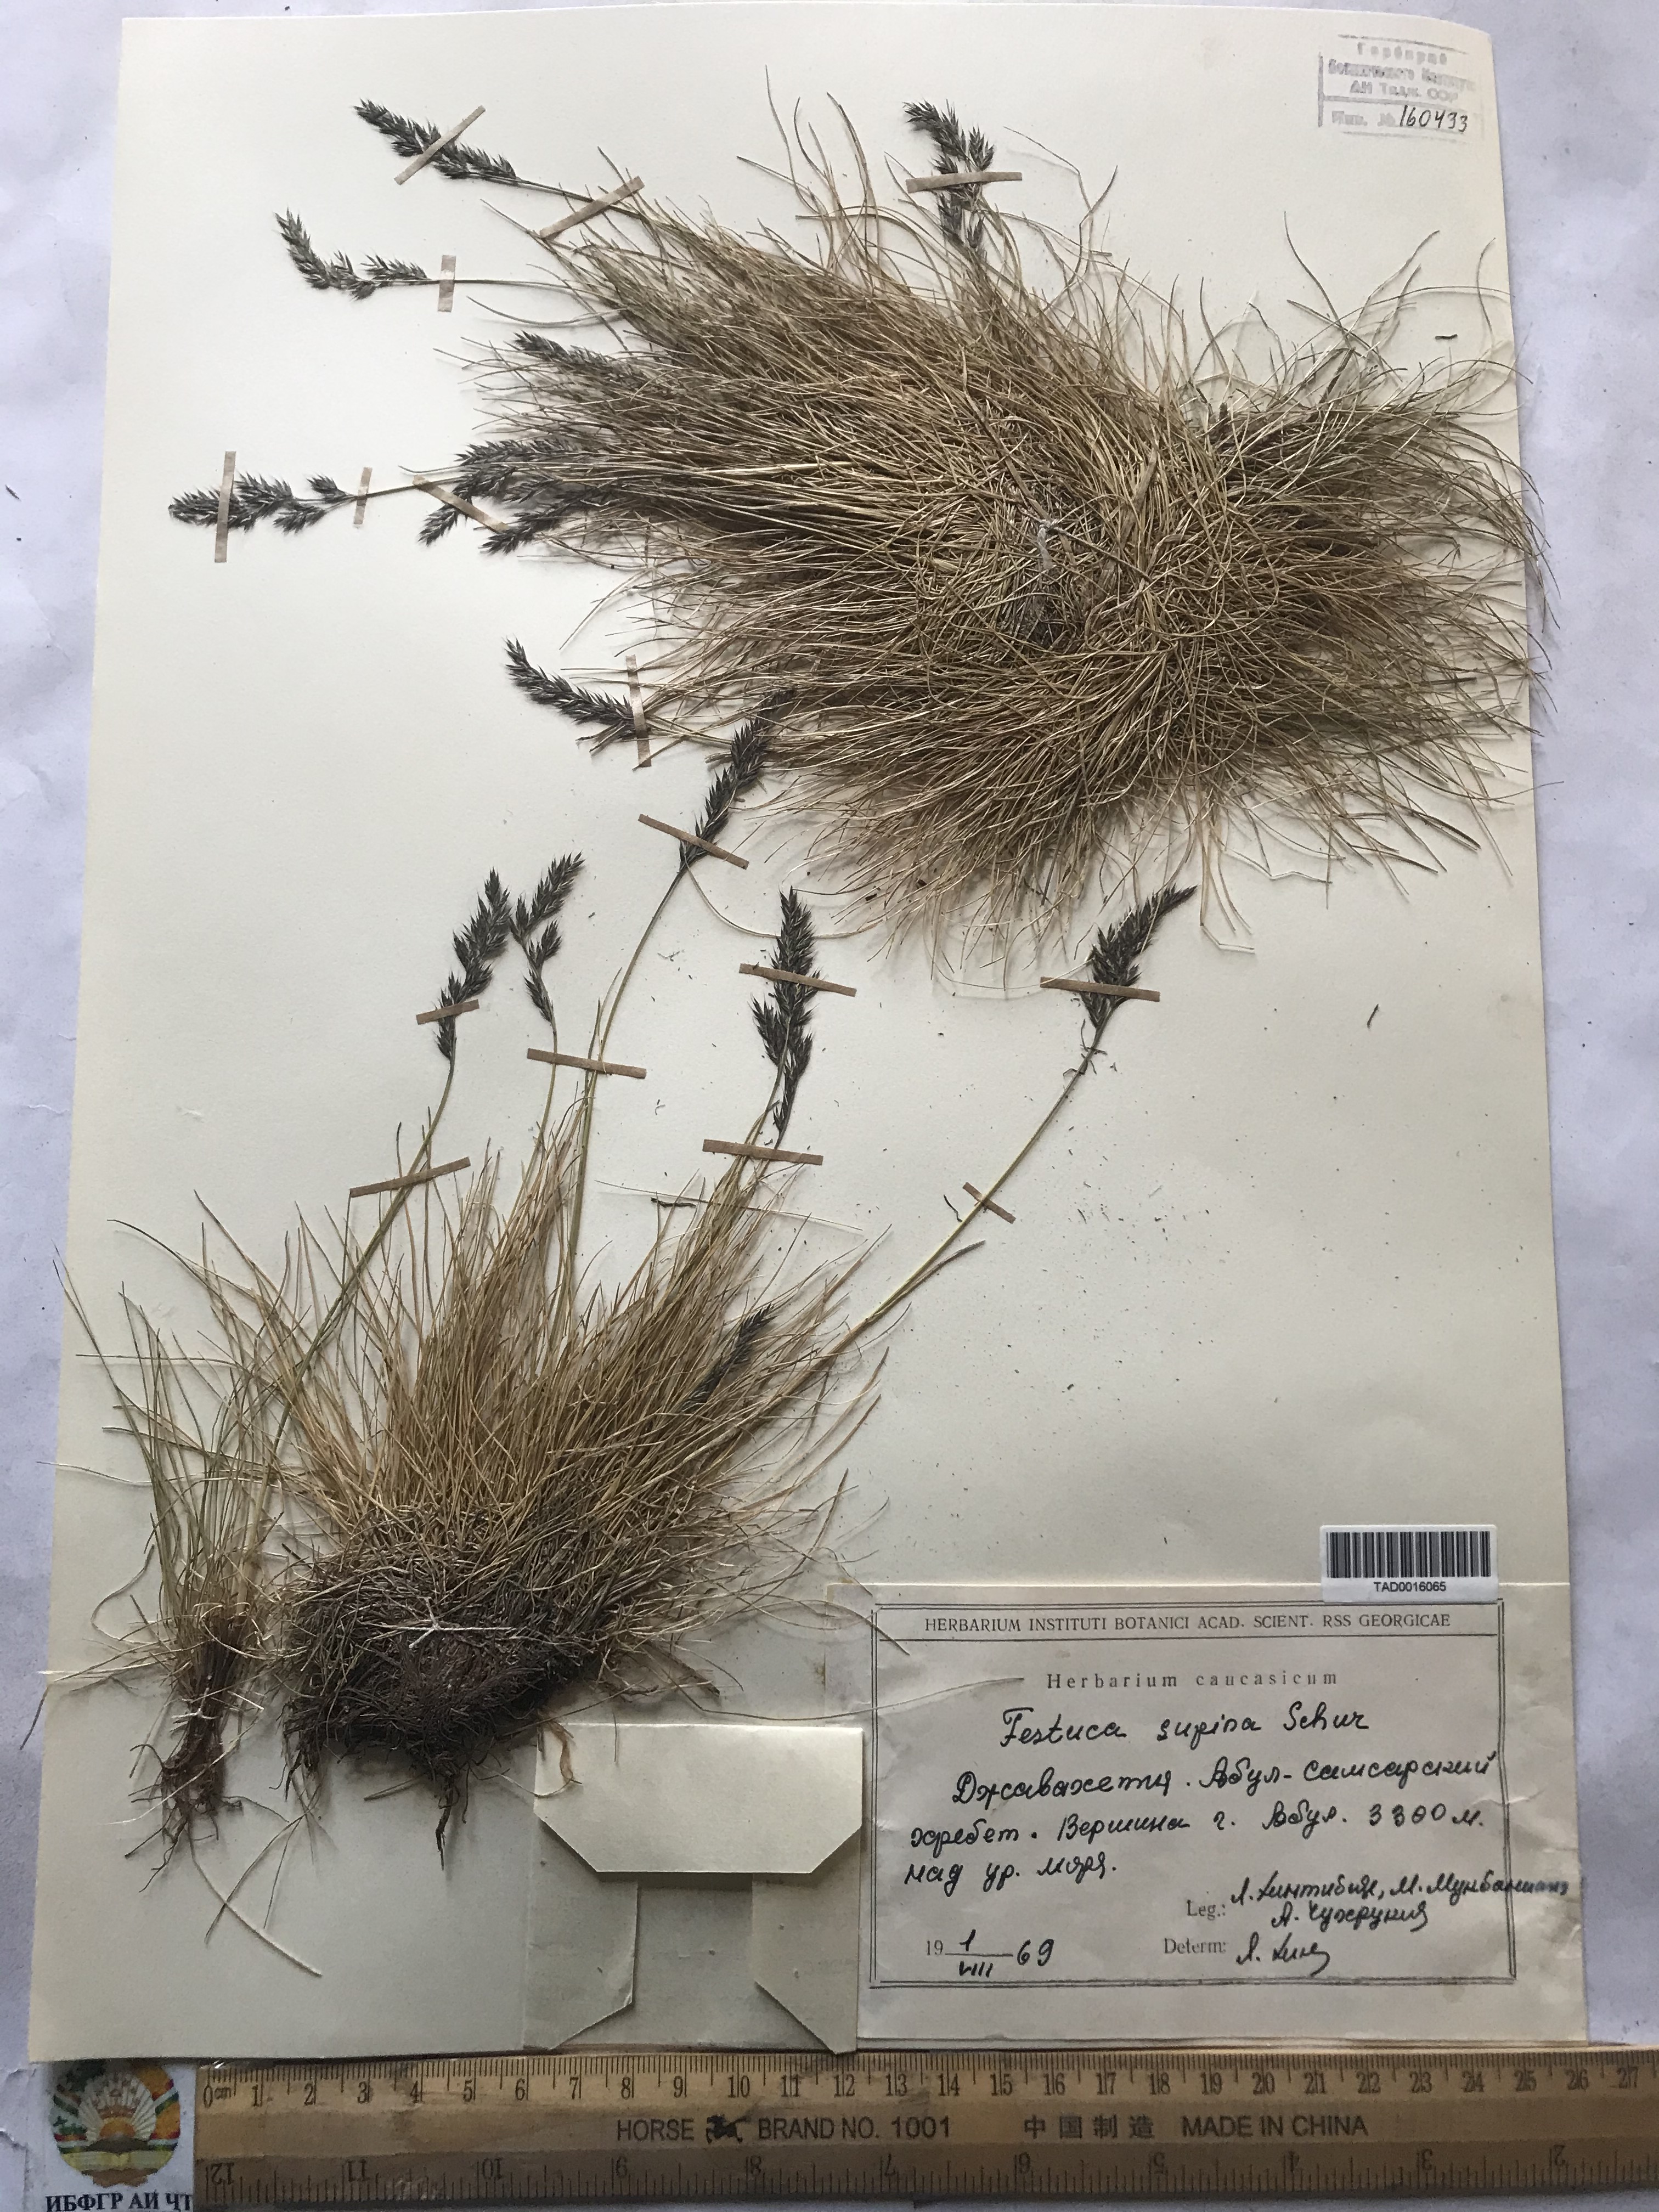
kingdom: Plantae
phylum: Tracheophyta
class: Liliopsida
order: Poales
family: Poaceae
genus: Festuca
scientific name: Festuca airoides
